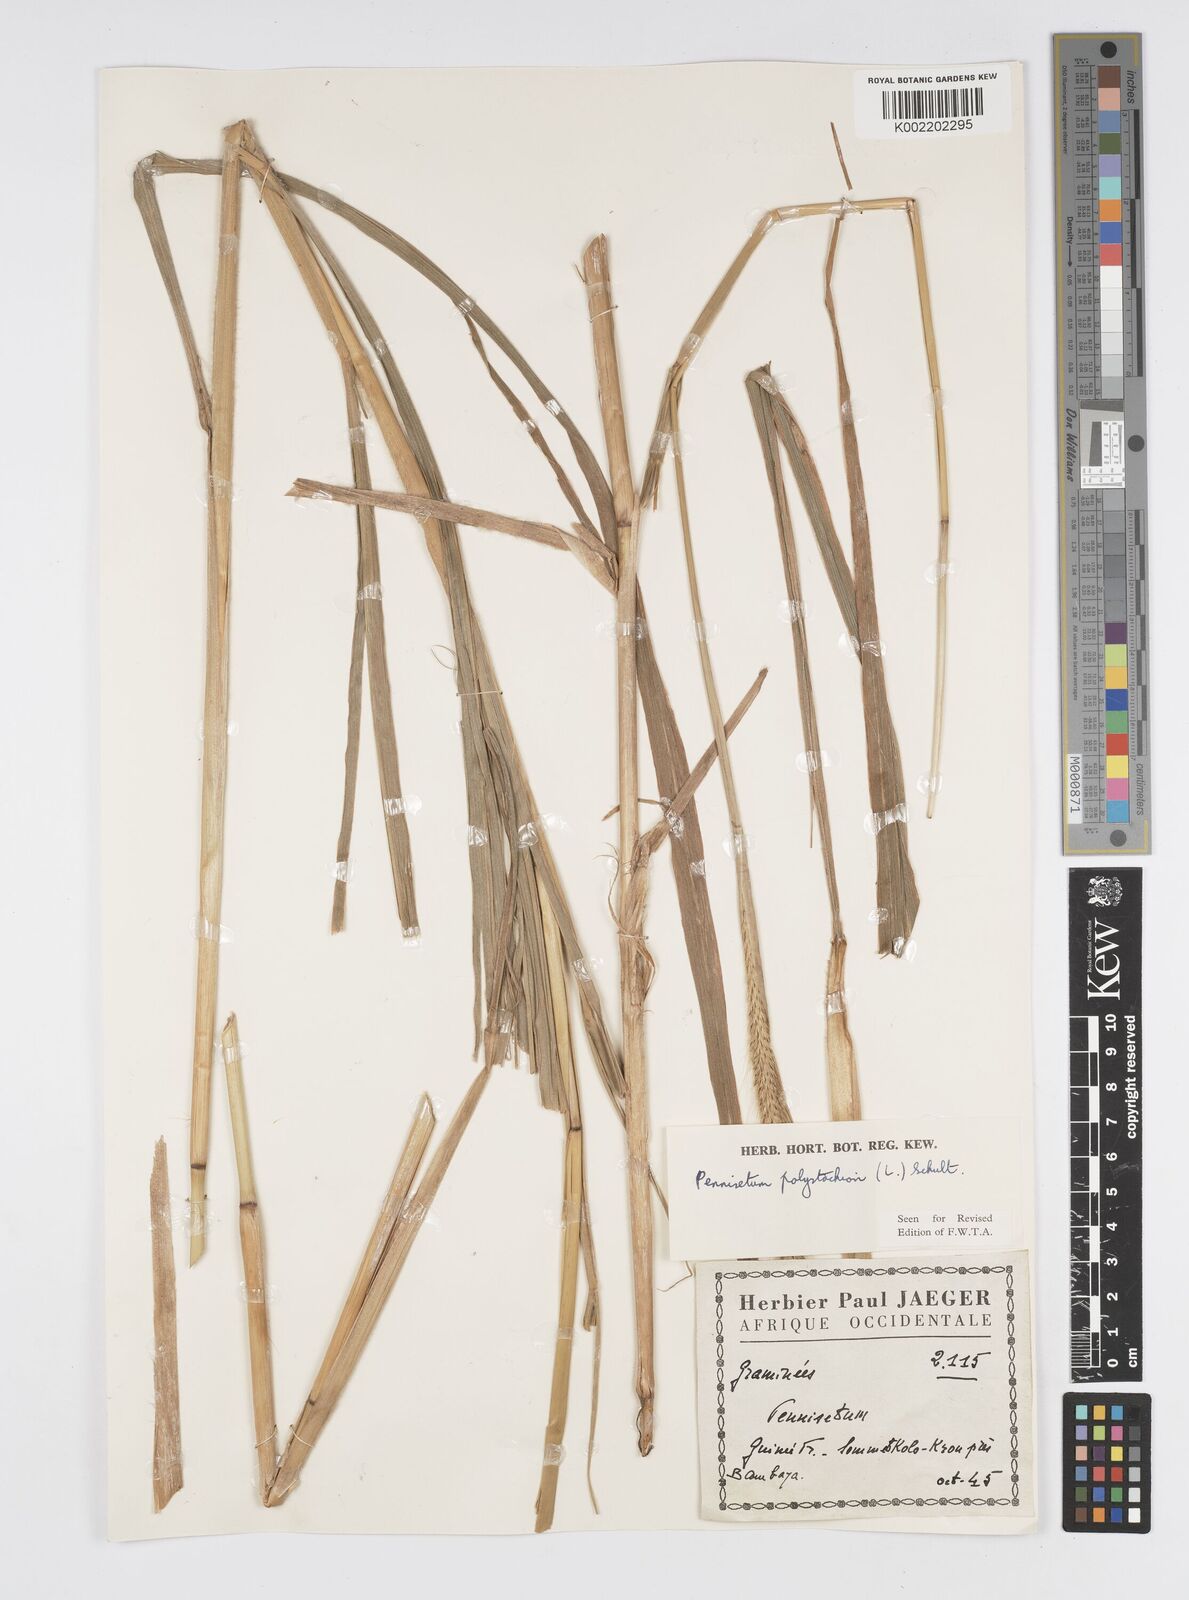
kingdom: Plantae
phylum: Tracheophyta
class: Liliopsida
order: Poales
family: Poaceae
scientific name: Poaceae
